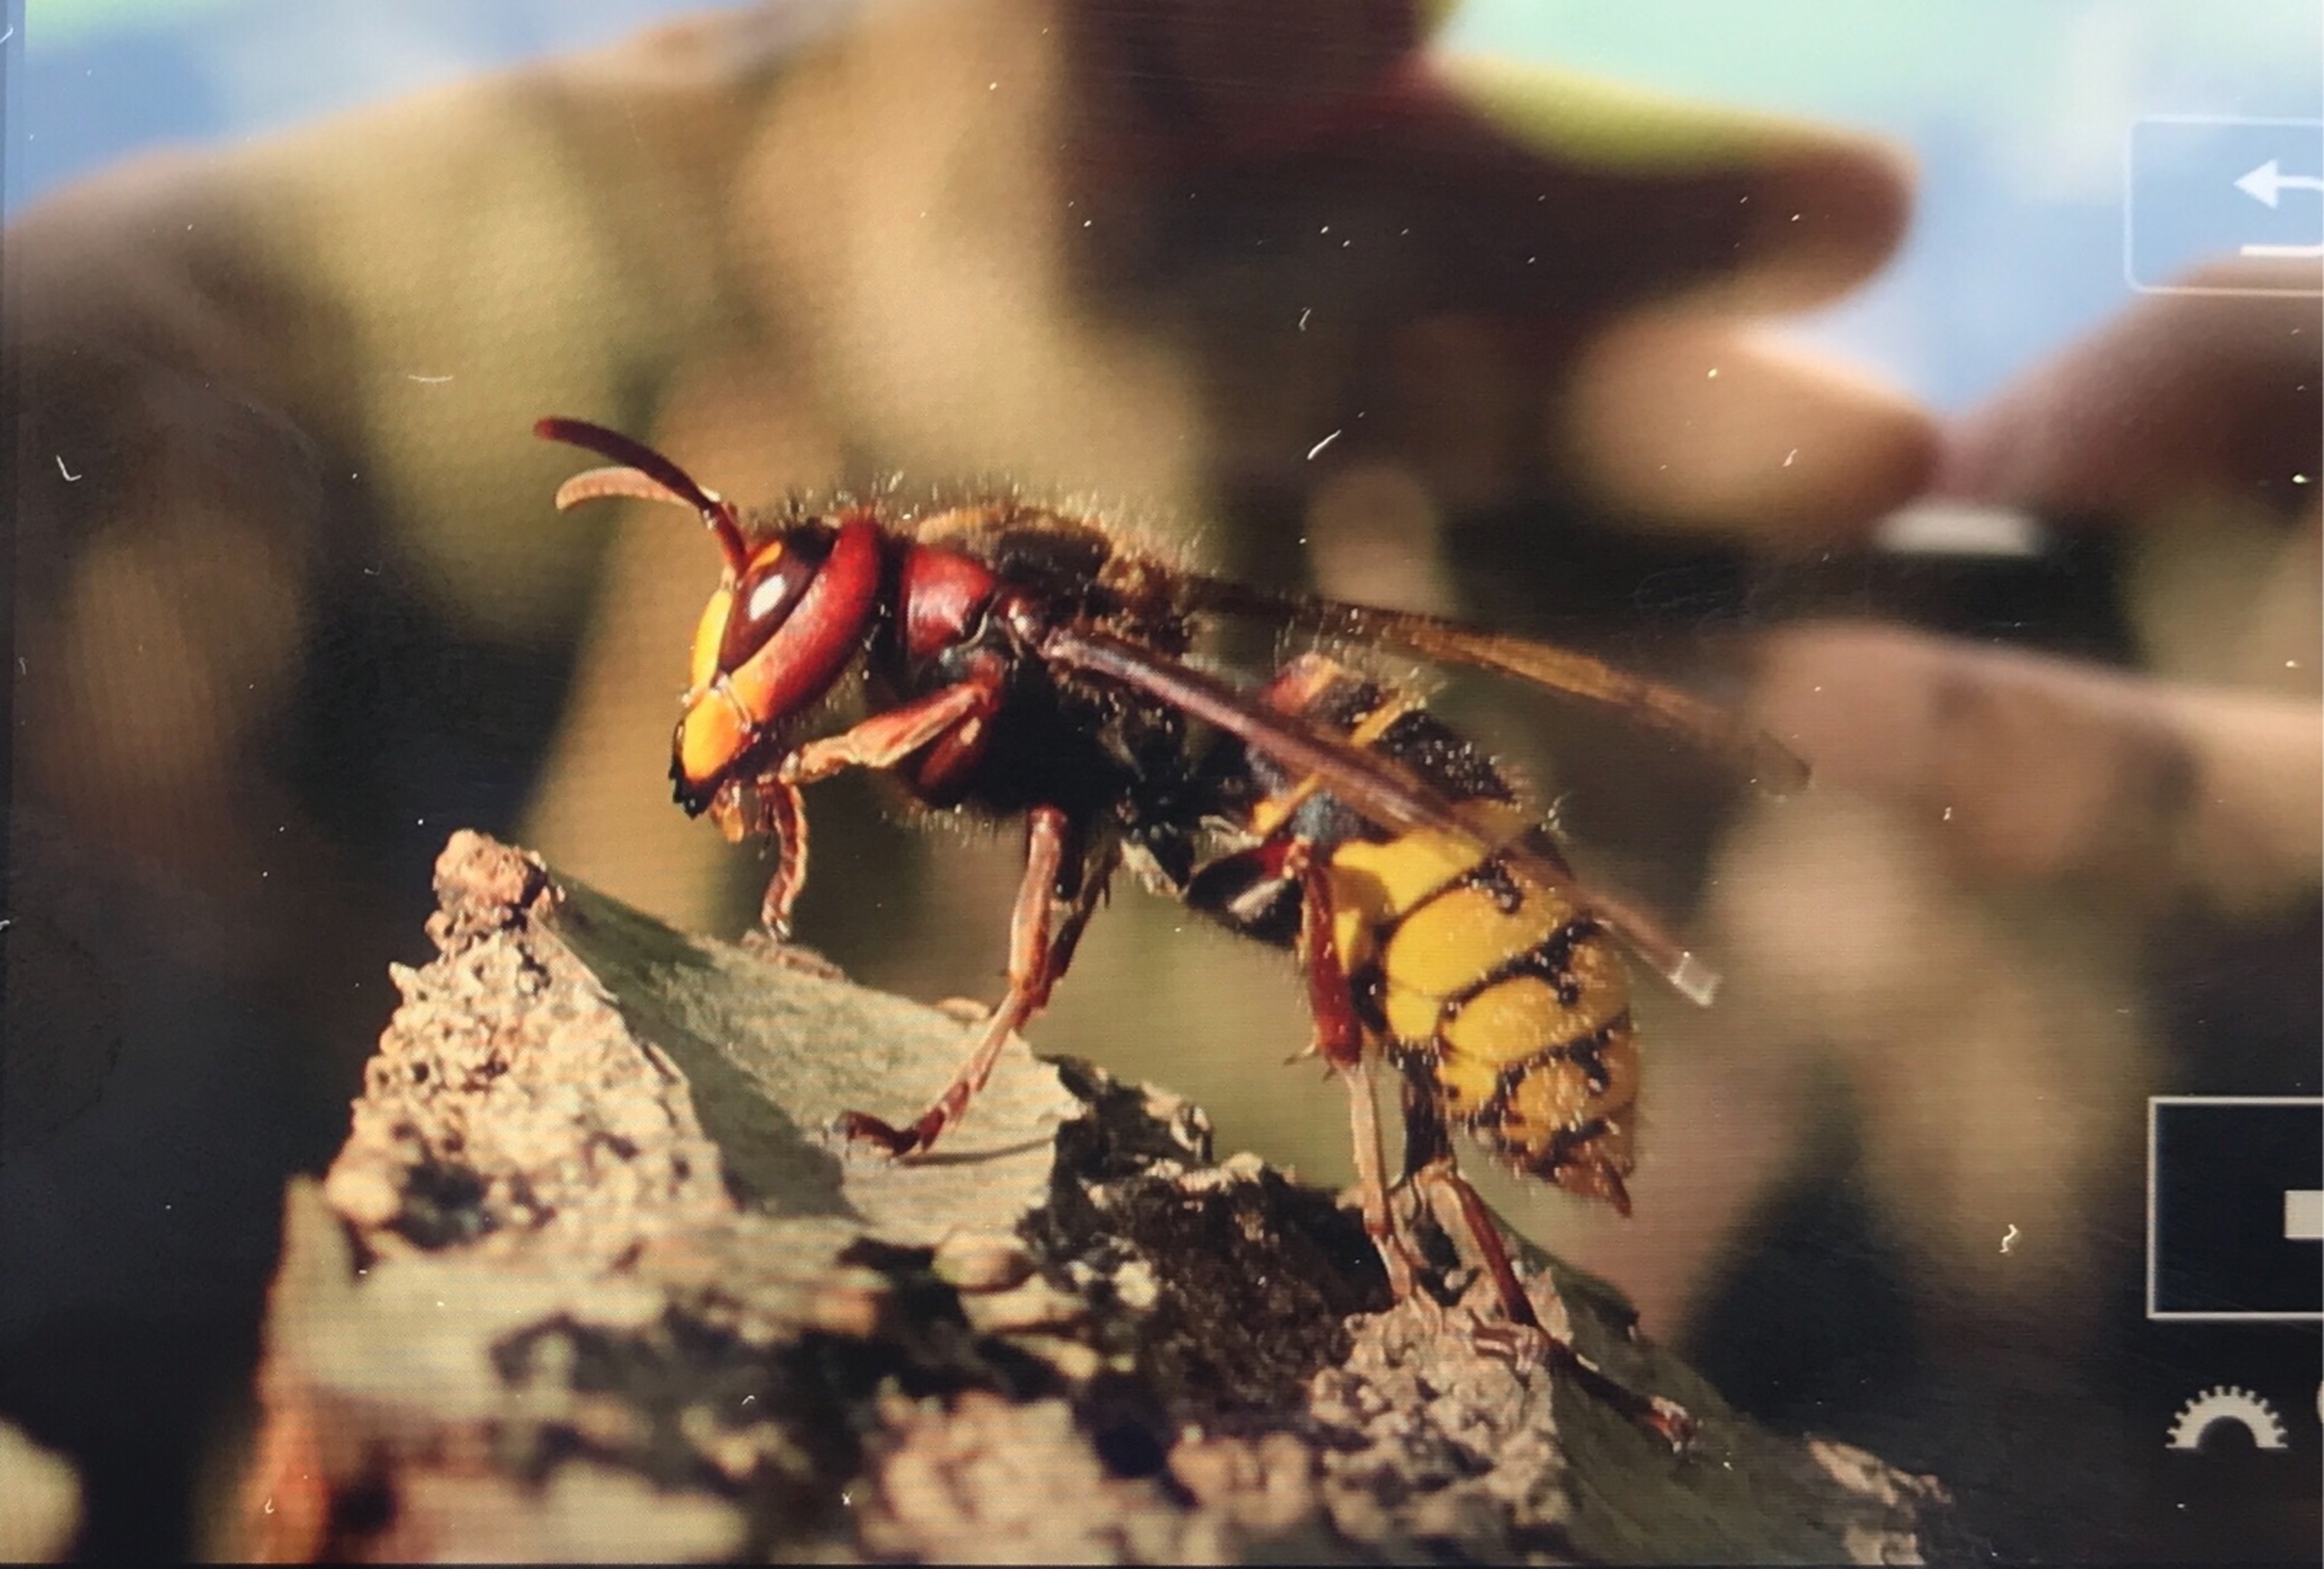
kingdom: Animalia
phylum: Arthropoda
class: Insecta
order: Hymenoptera
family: Vespidae
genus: Dolichovespula
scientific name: Dolichovespula media
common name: Mellemstor gedehams
